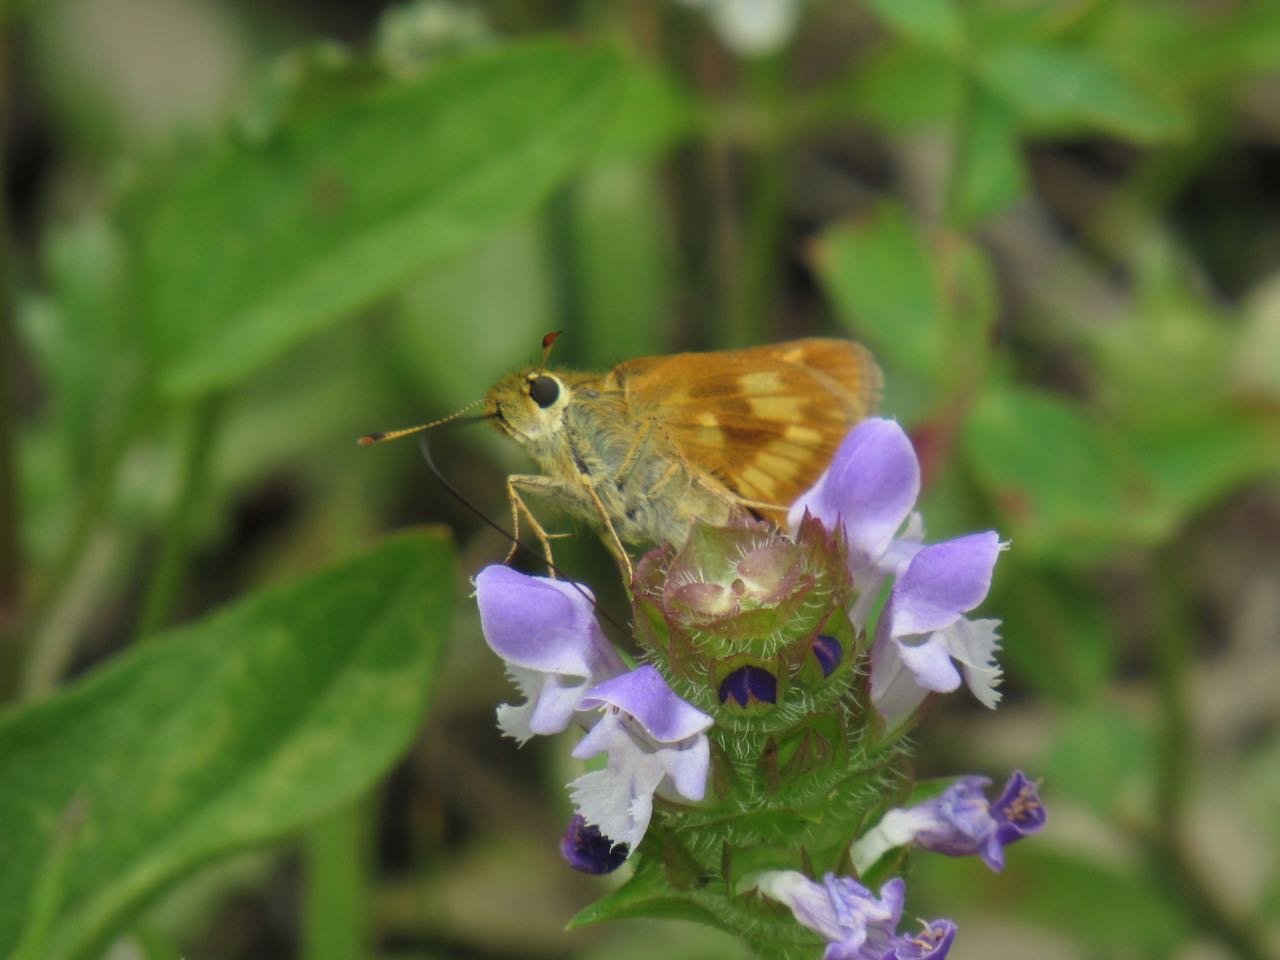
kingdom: Animalia
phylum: Arthropoda
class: Insecta
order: Lepidoptera
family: Hesperiidae
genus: Polites
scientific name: Polites
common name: Long Dash Skipper
